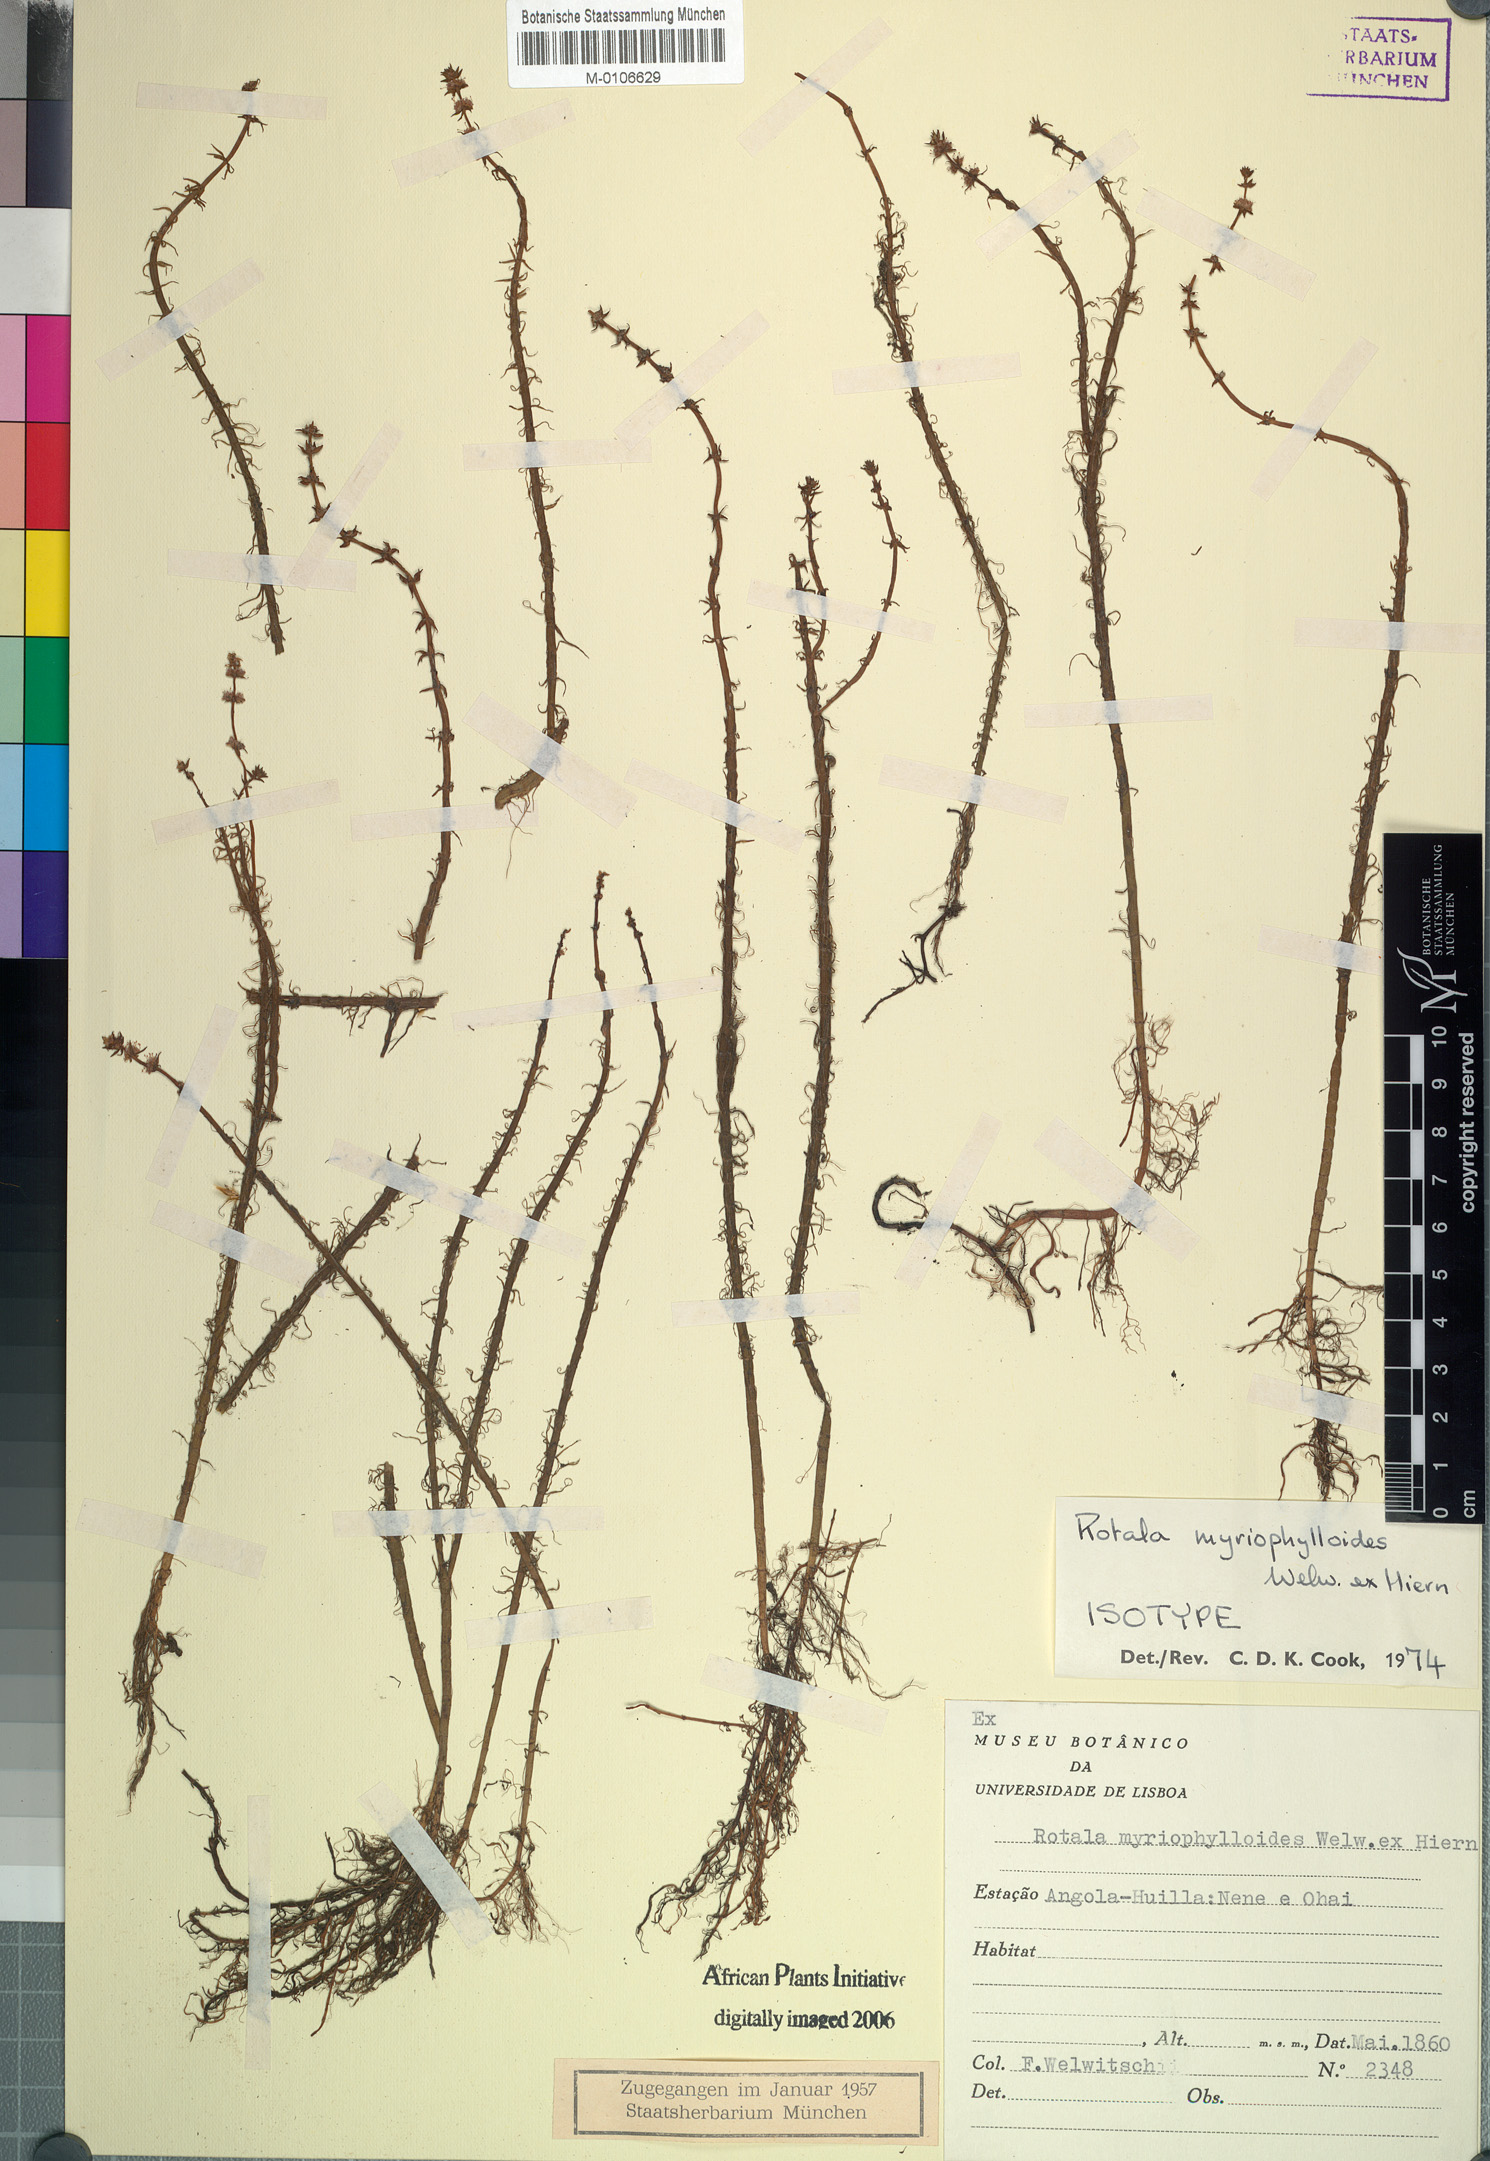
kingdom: Plantae
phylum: Tracheophyta
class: Magnoliopsida
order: Myrtales
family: Lythraceae
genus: Rotala
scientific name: Rotala myriophylloides
